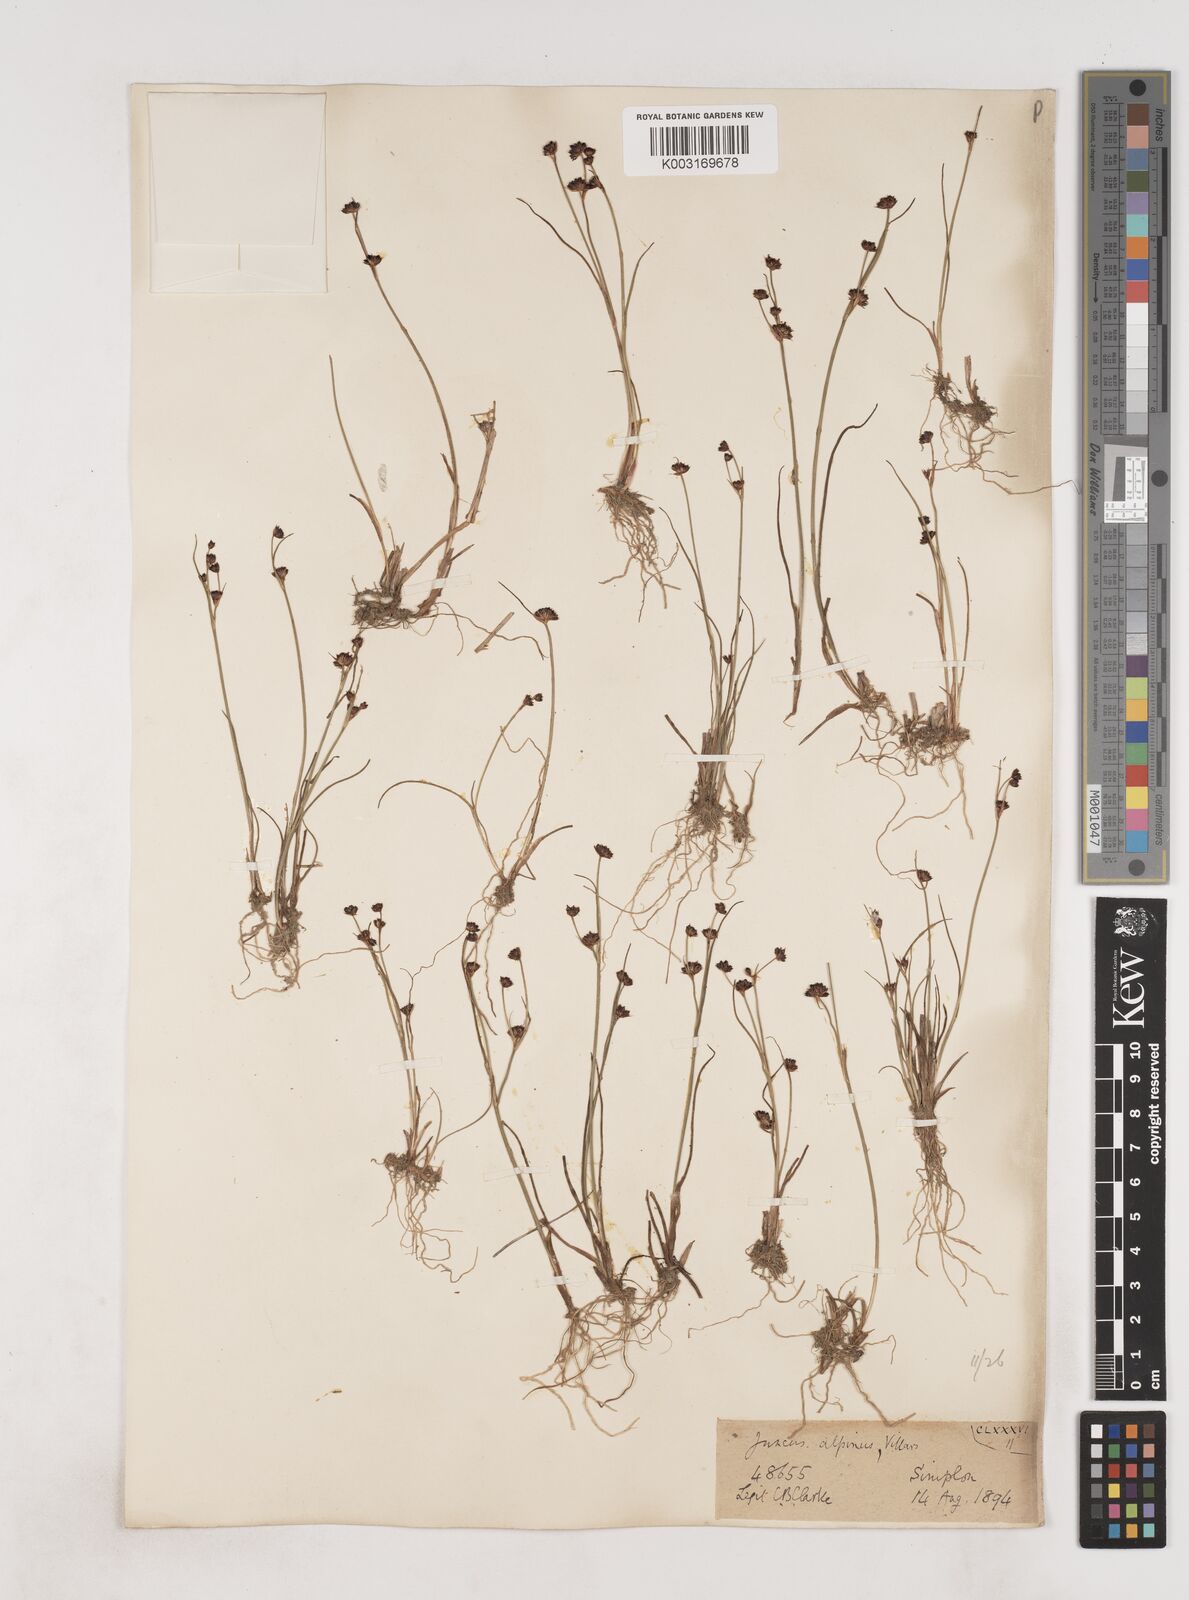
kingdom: Plantae
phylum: Tracheophyta
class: Liliopsida
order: Poales
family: Juncaceae
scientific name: Juncaceae
